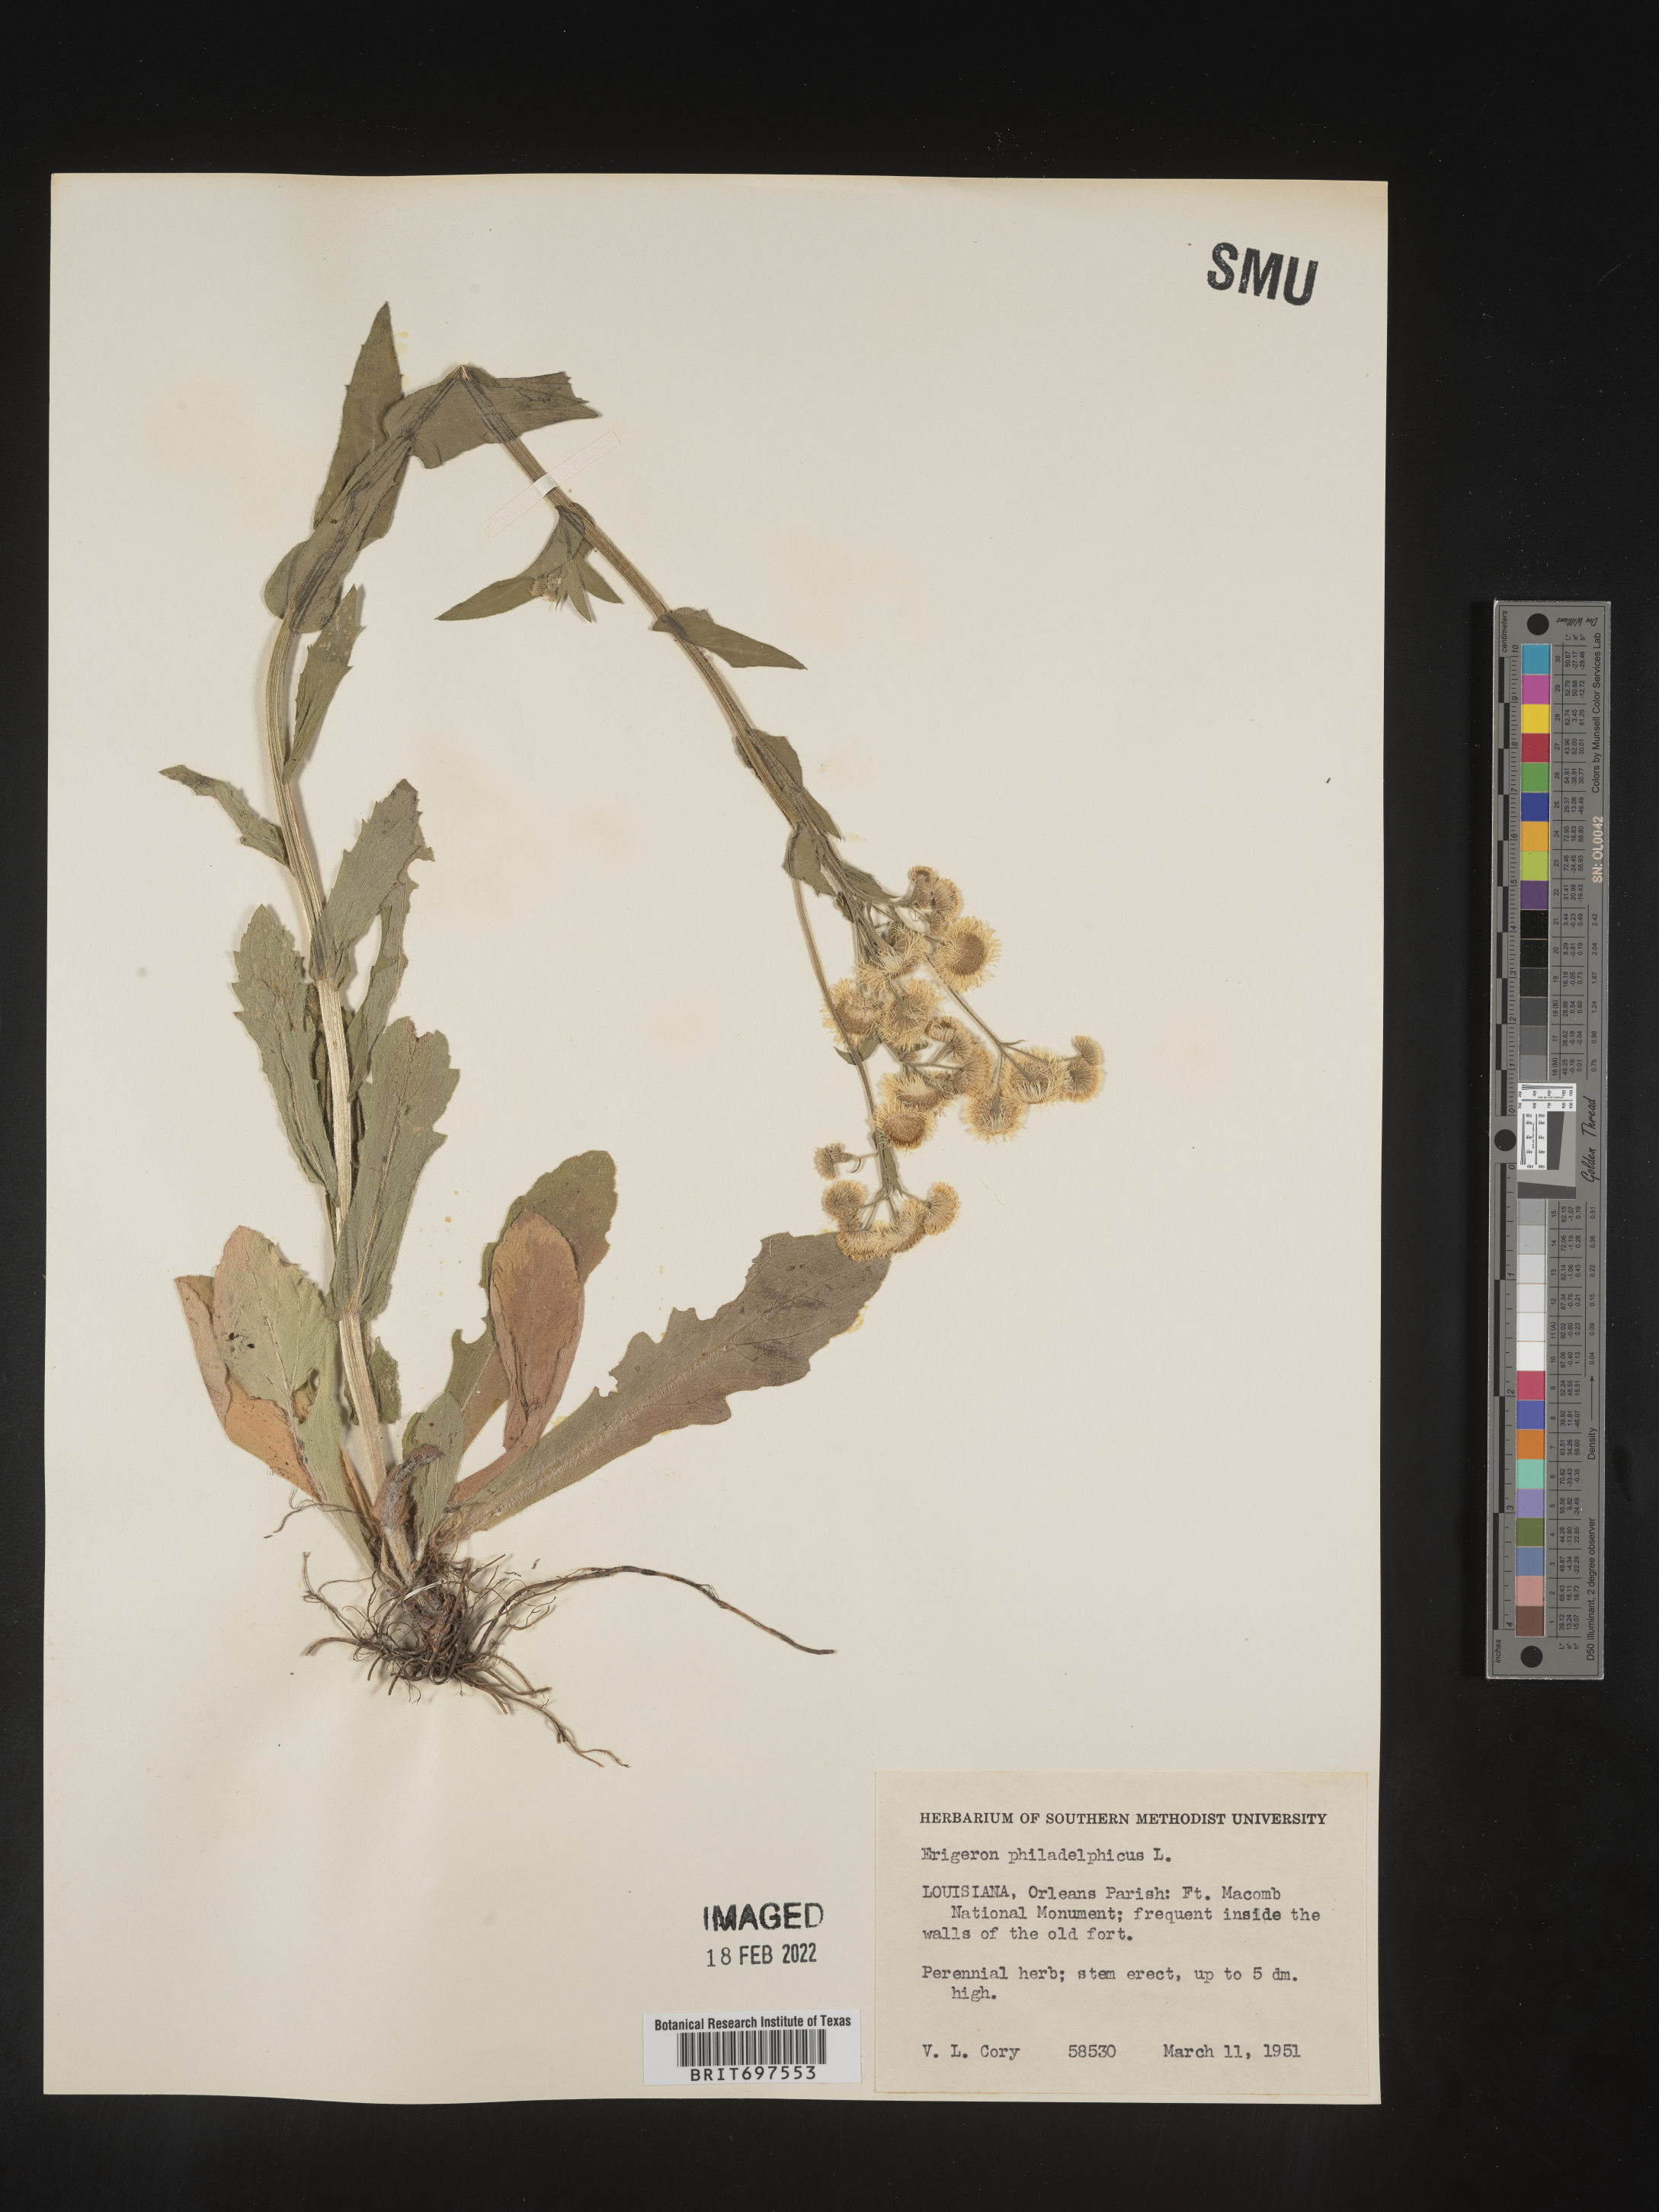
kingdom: Plantae
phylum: Tracheophyta
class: Magnoliopsida
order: Asterales
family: Asteraceae
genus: Erigeron
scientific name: Erigeron philadelphicus
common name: Robin's-plantain
